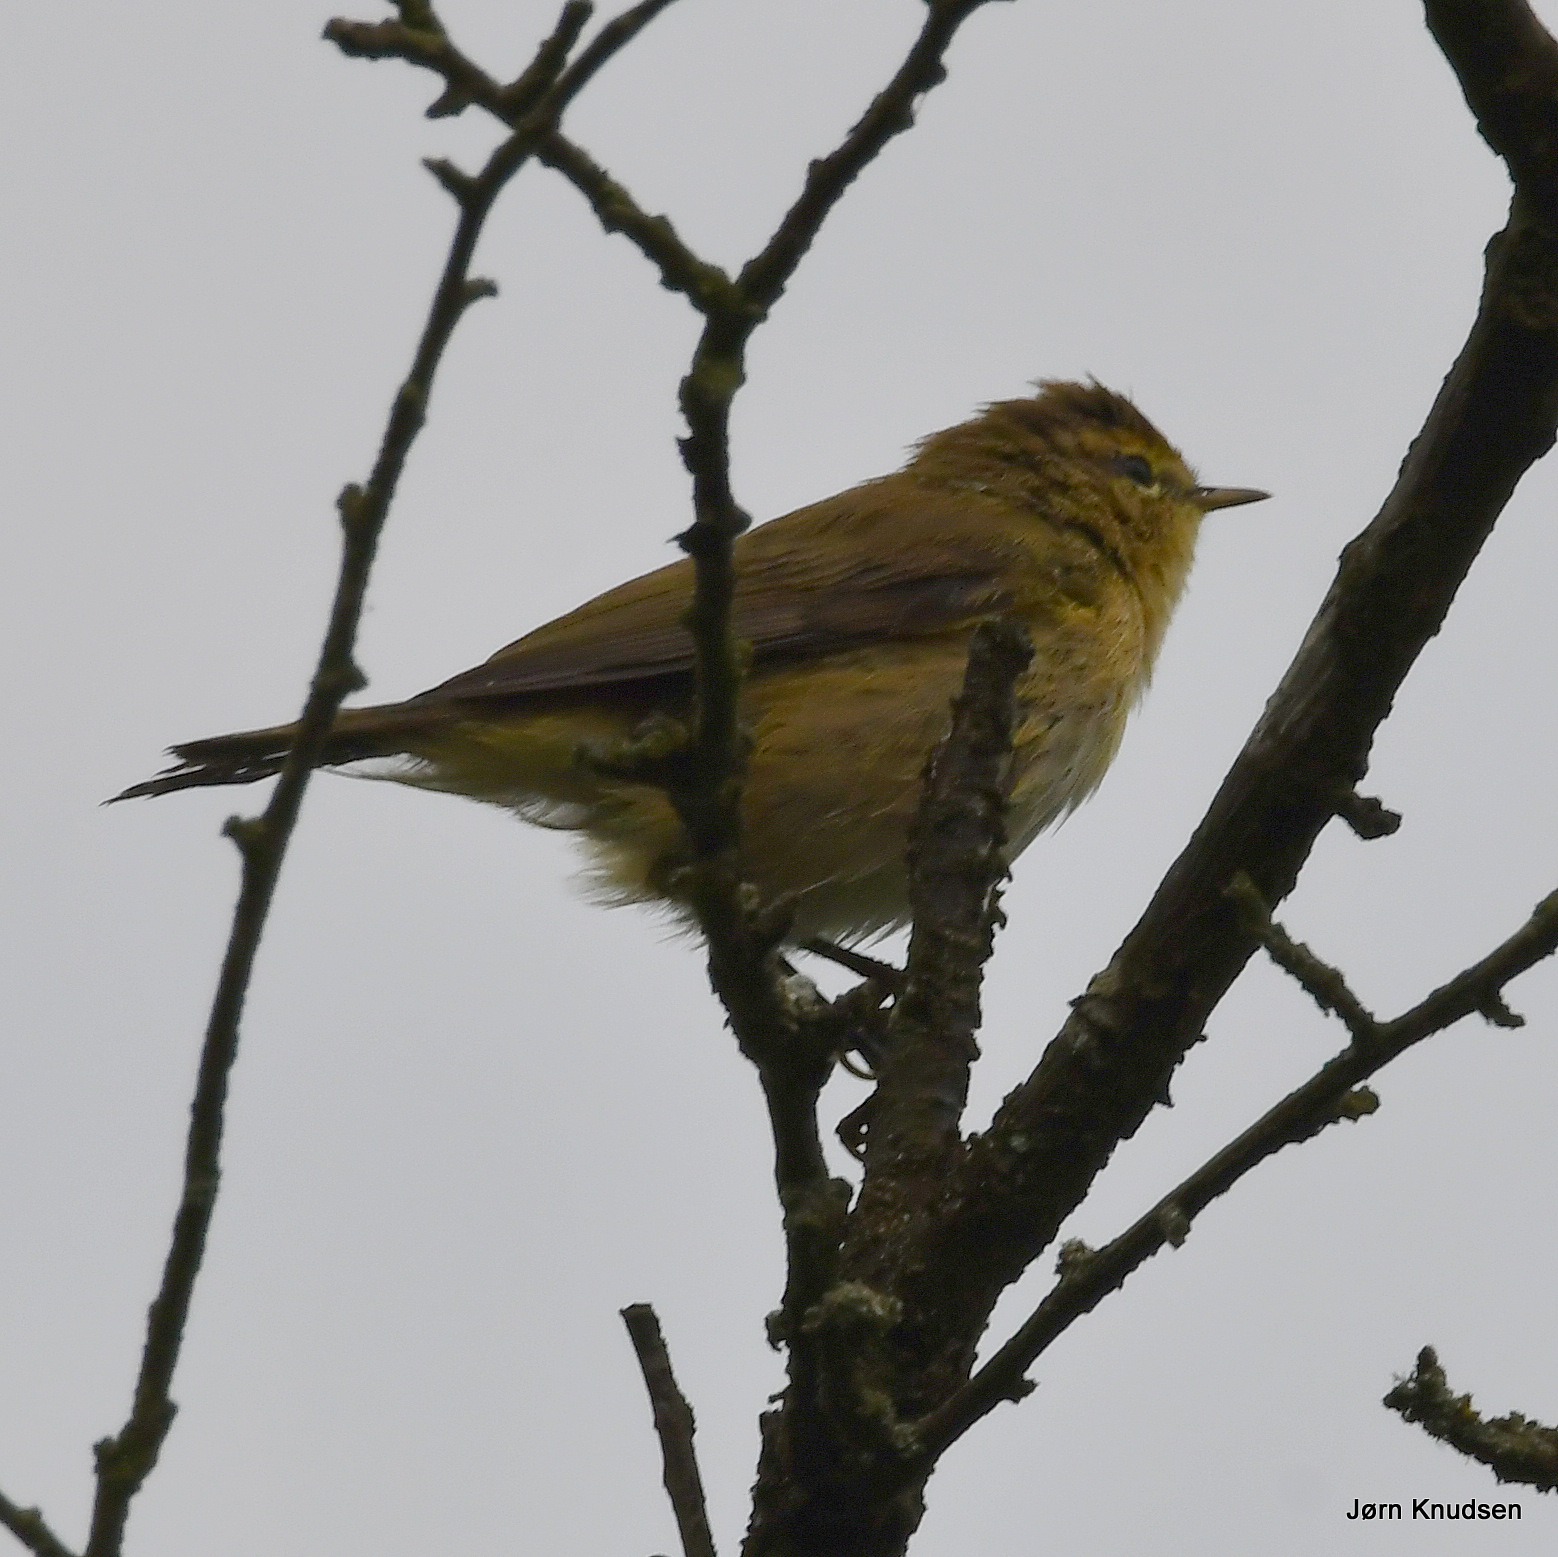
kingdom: Animalia
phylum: Chordata
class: Aves
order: Passeriformes
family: Phylloscopidae
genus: Phylloscopus
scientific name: Phylloscopus collybita
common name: Gransanger
